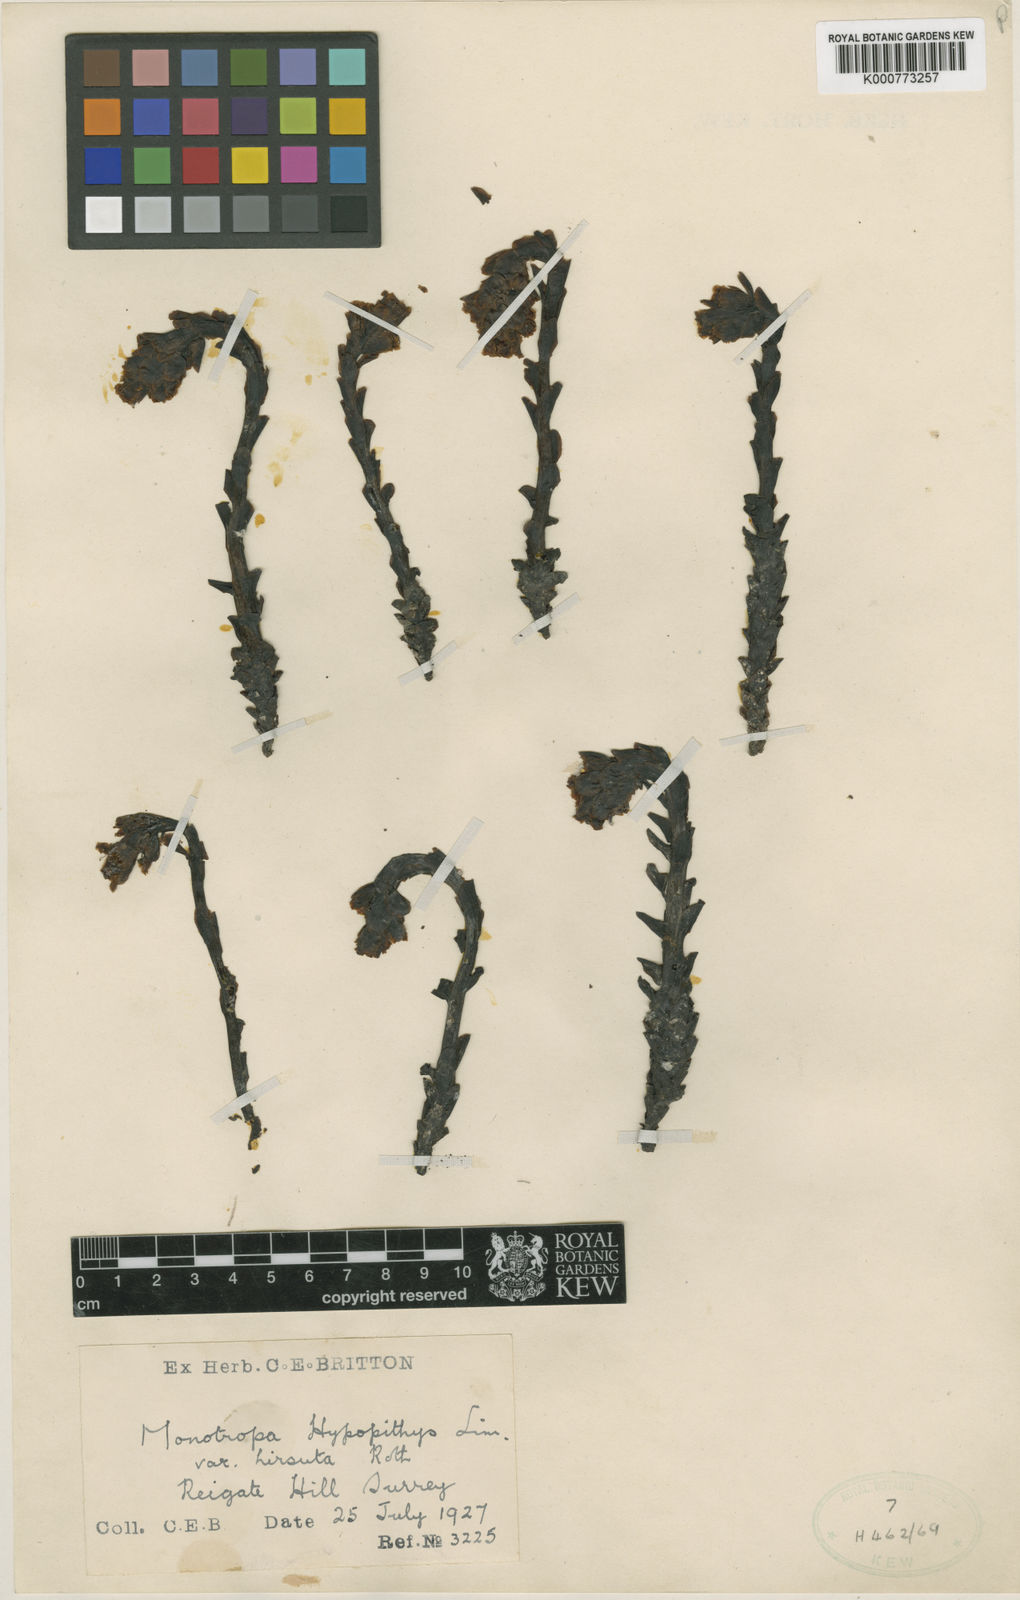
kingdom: Plantae
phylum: Tracheophyta
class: Magnoliopsida
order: Ericales
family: Ericaceae
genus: Monotropa
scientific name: Monotropa
